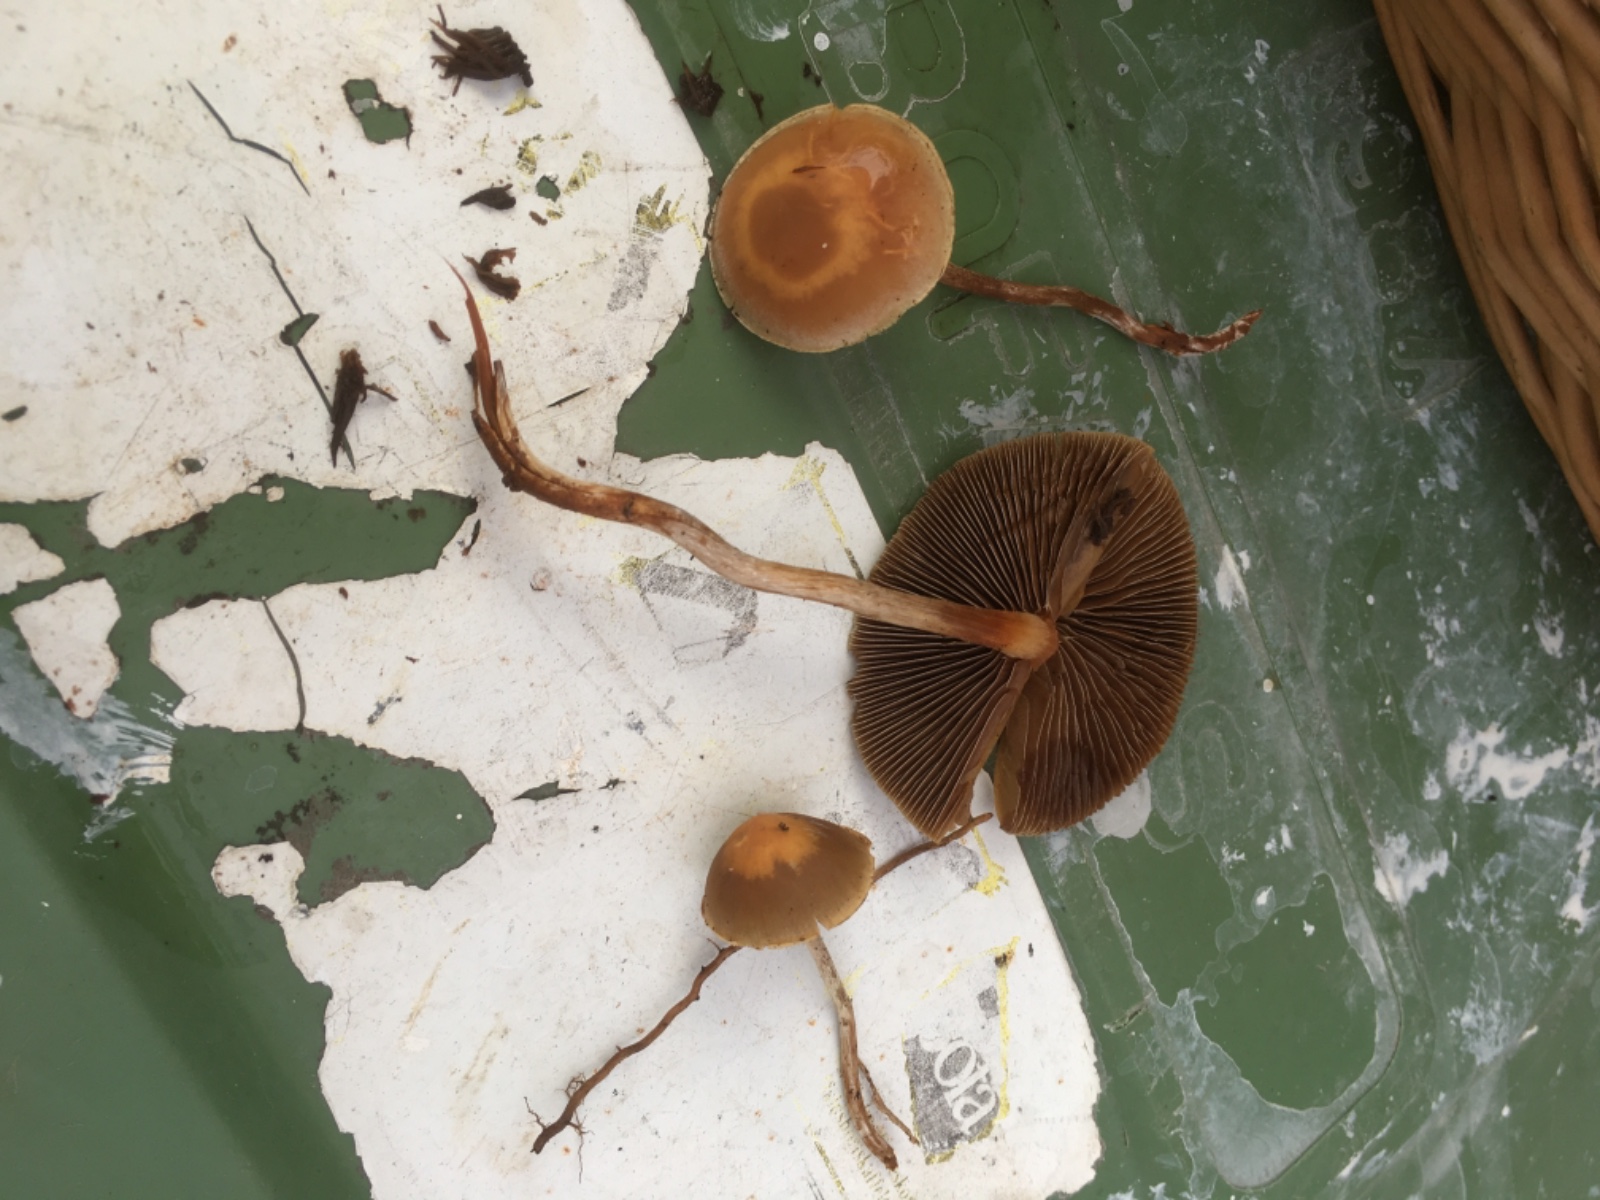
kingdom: Fungi
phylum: Basidiomycota
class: Agaricomycetes
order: Agaricales
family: Strophariaceae
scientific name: Strophariaceae
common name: bredbladfamilien
